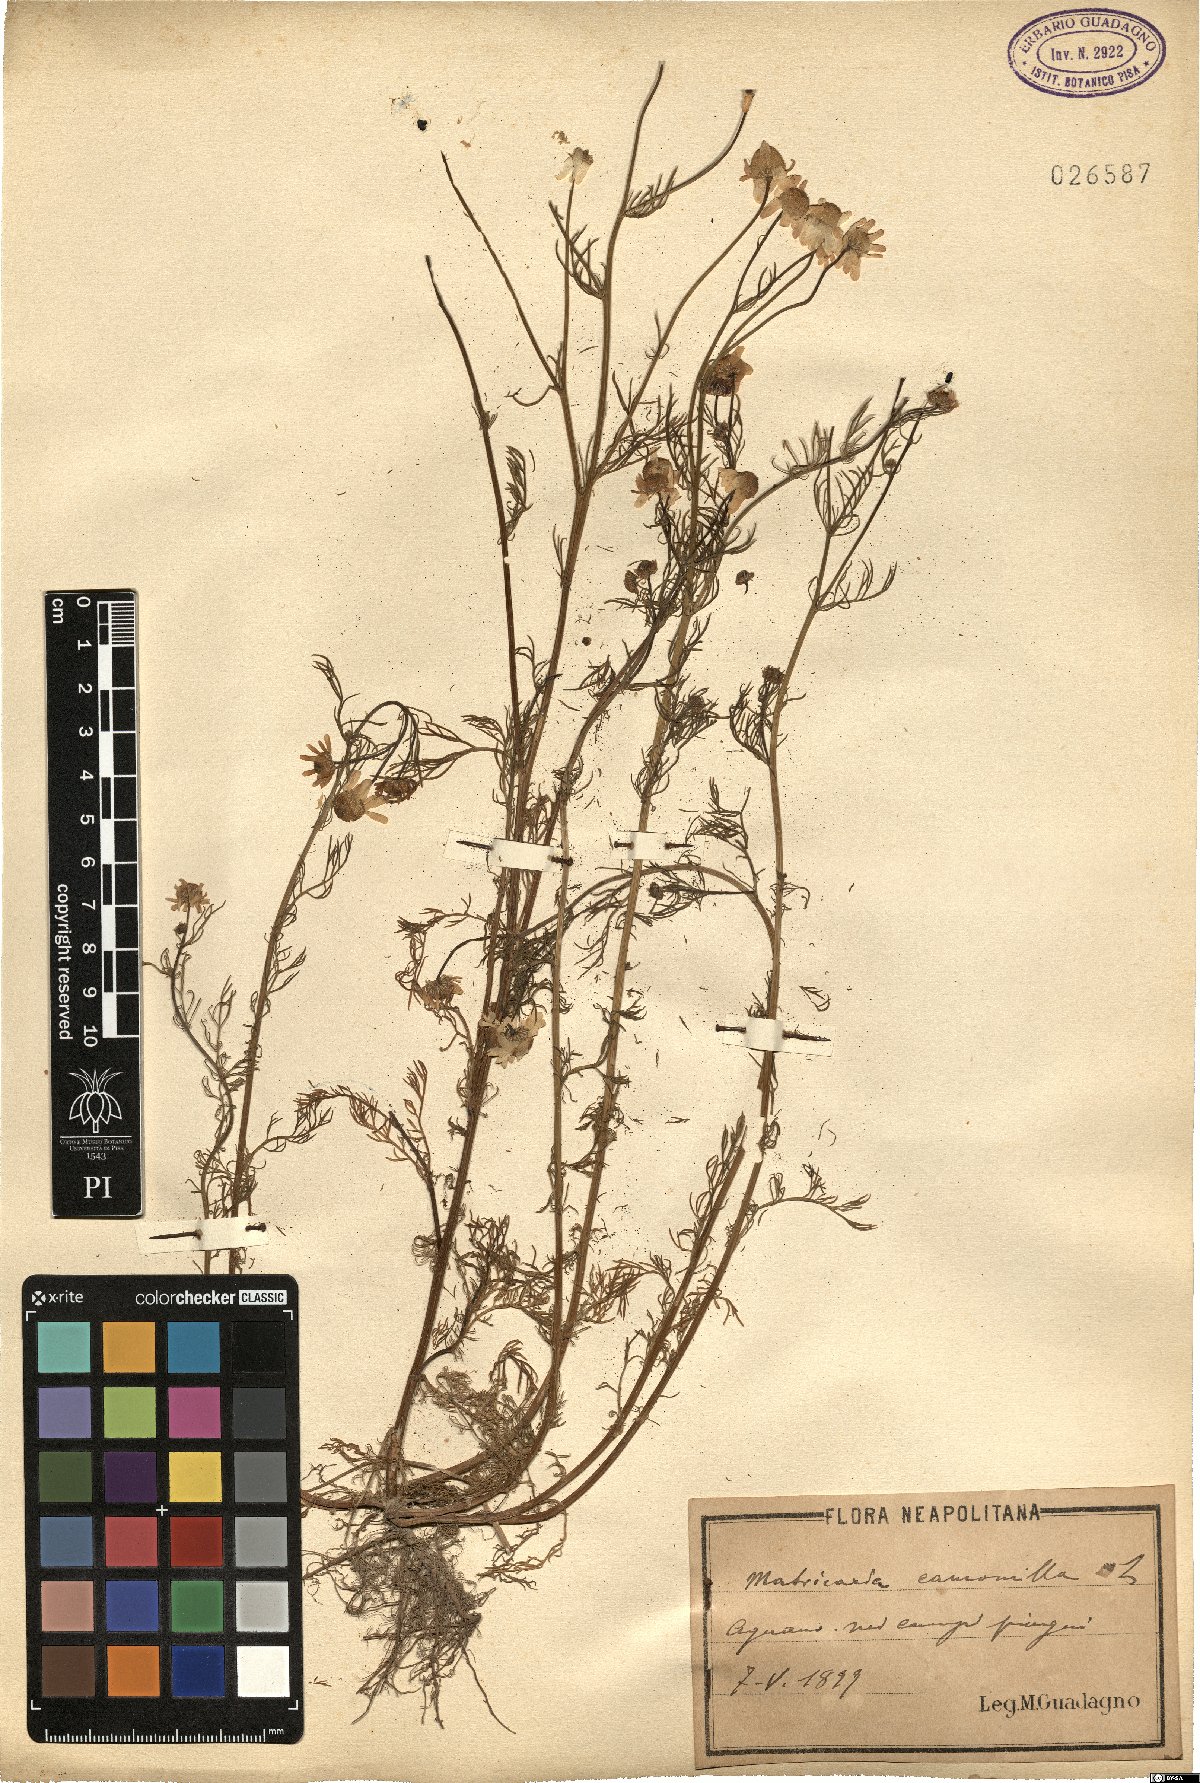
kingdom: Plantae
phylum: Tracheophyta
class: Magnoliopsida
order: Asterales
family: Asteraceae
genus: Matricaria
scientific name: Matricaria chamomilla
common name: Scented mayweed
